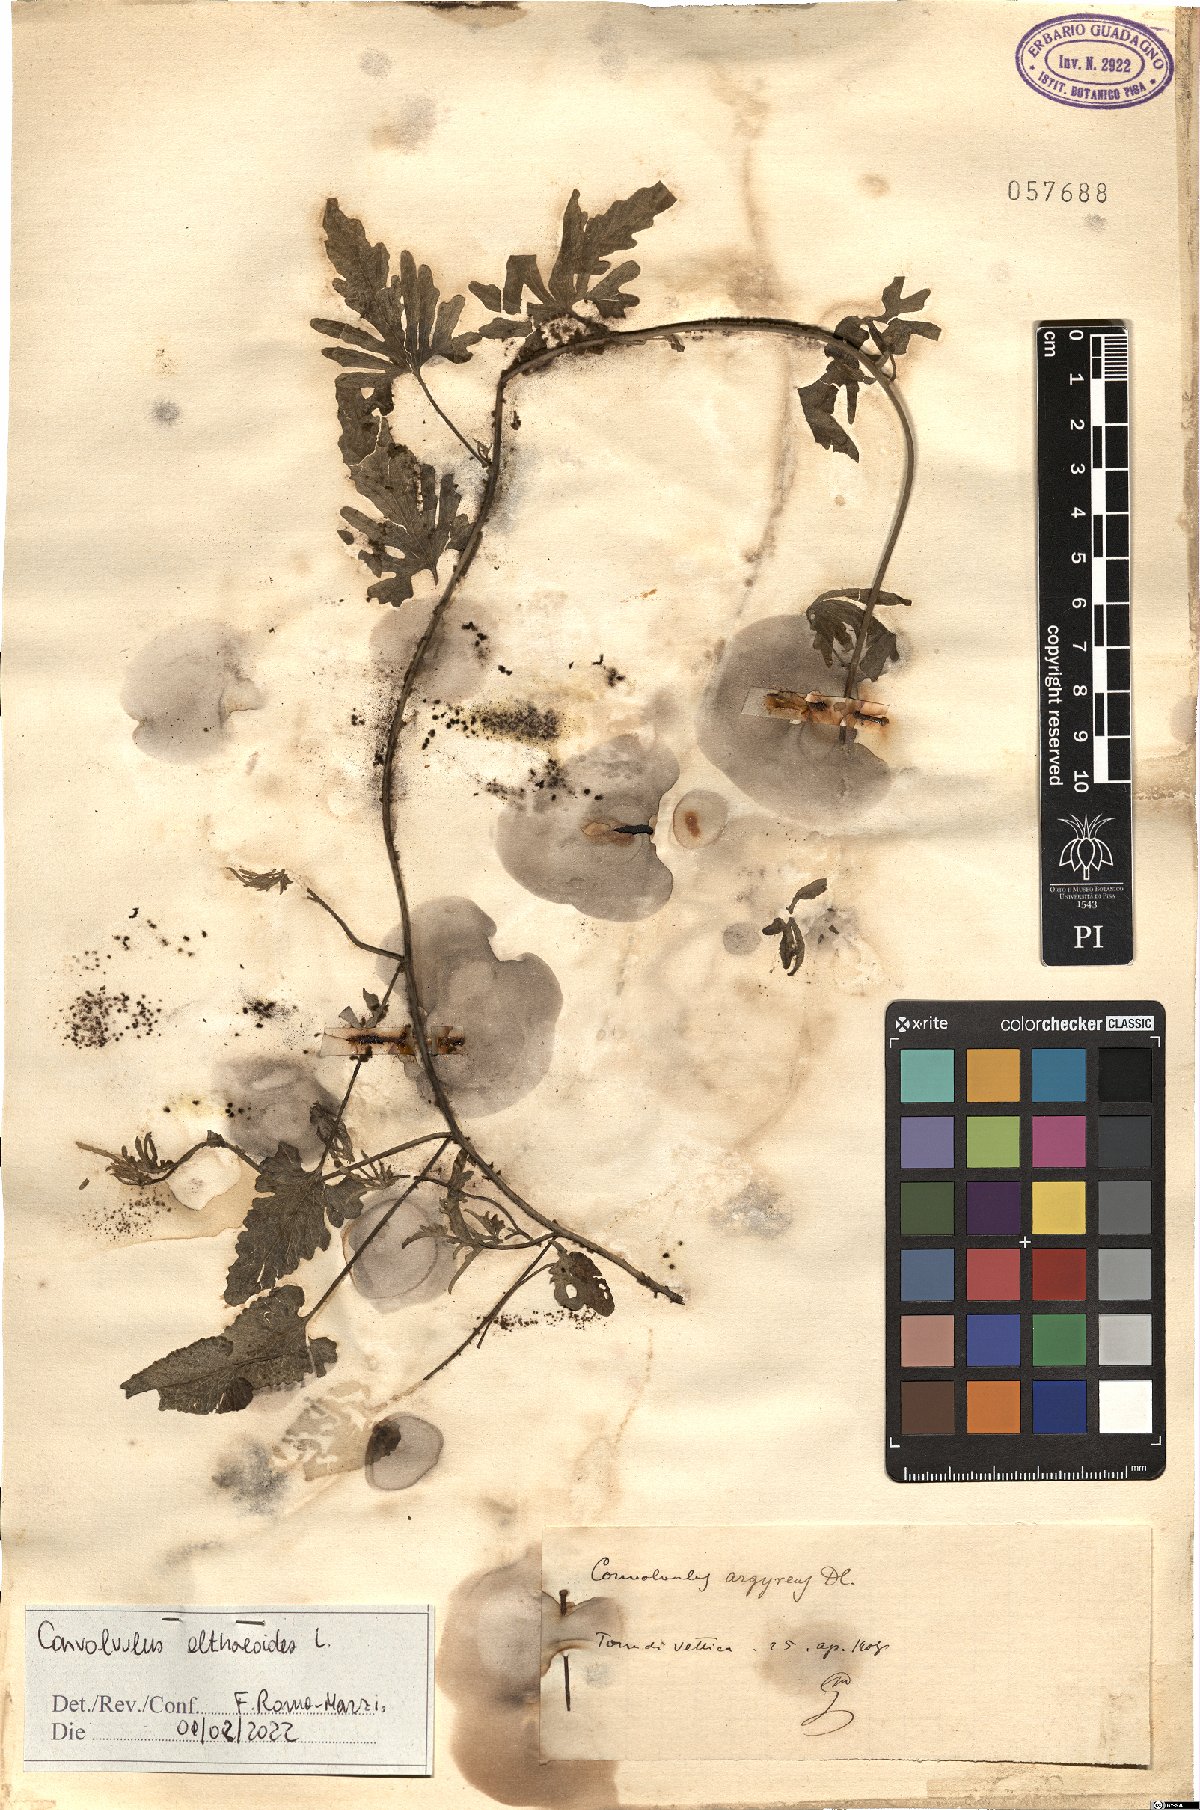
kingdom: Plantae
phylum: Tracheophyta
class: Magnoliopsida
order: Solanales
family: Convolvulaceae
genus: Convolvulus
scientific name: Convolvulus althaeoides
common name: Mallow bindweed
